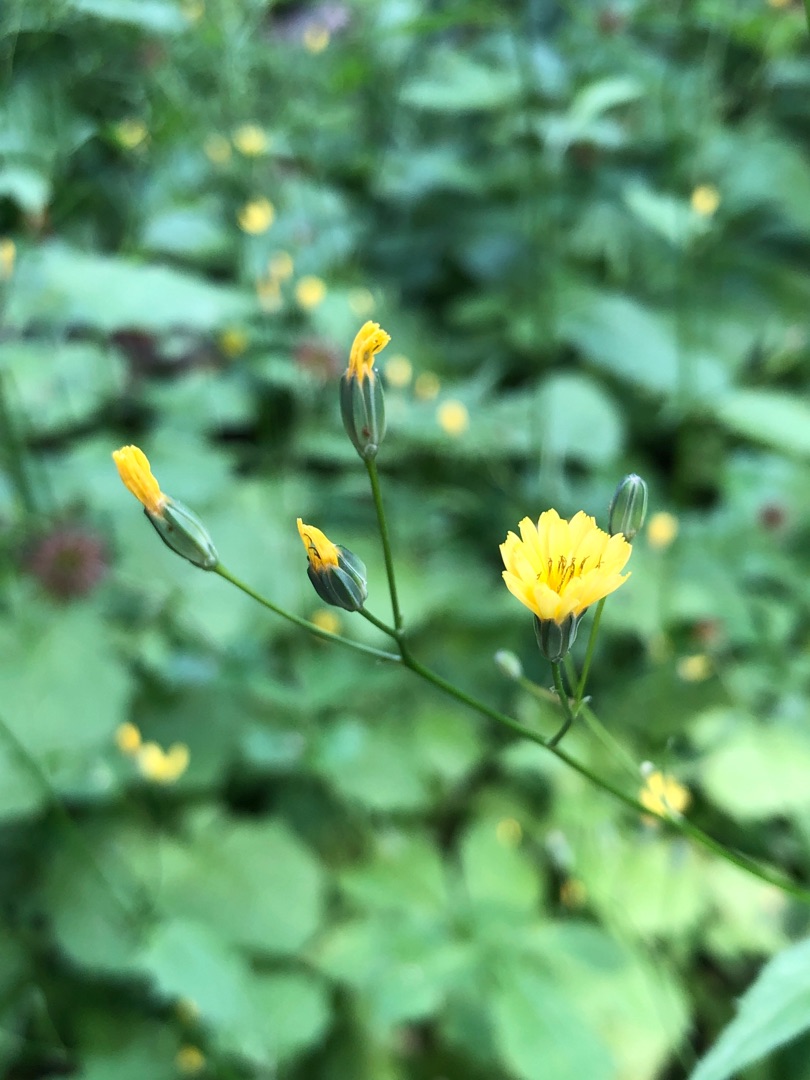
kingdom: Plantae
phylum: Tracheophyta
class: Magnoliopsida
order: Asterales
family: Asteraceae
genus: Lapsana
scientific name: Lapsana communis
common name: Haremad
